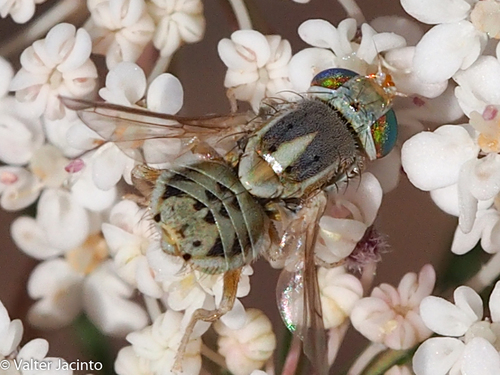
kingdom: Animalia
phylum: Arthropoda
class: Insecta
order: Diptera
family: Tephritidae
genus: Terellia
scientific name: Terellia serratulae
